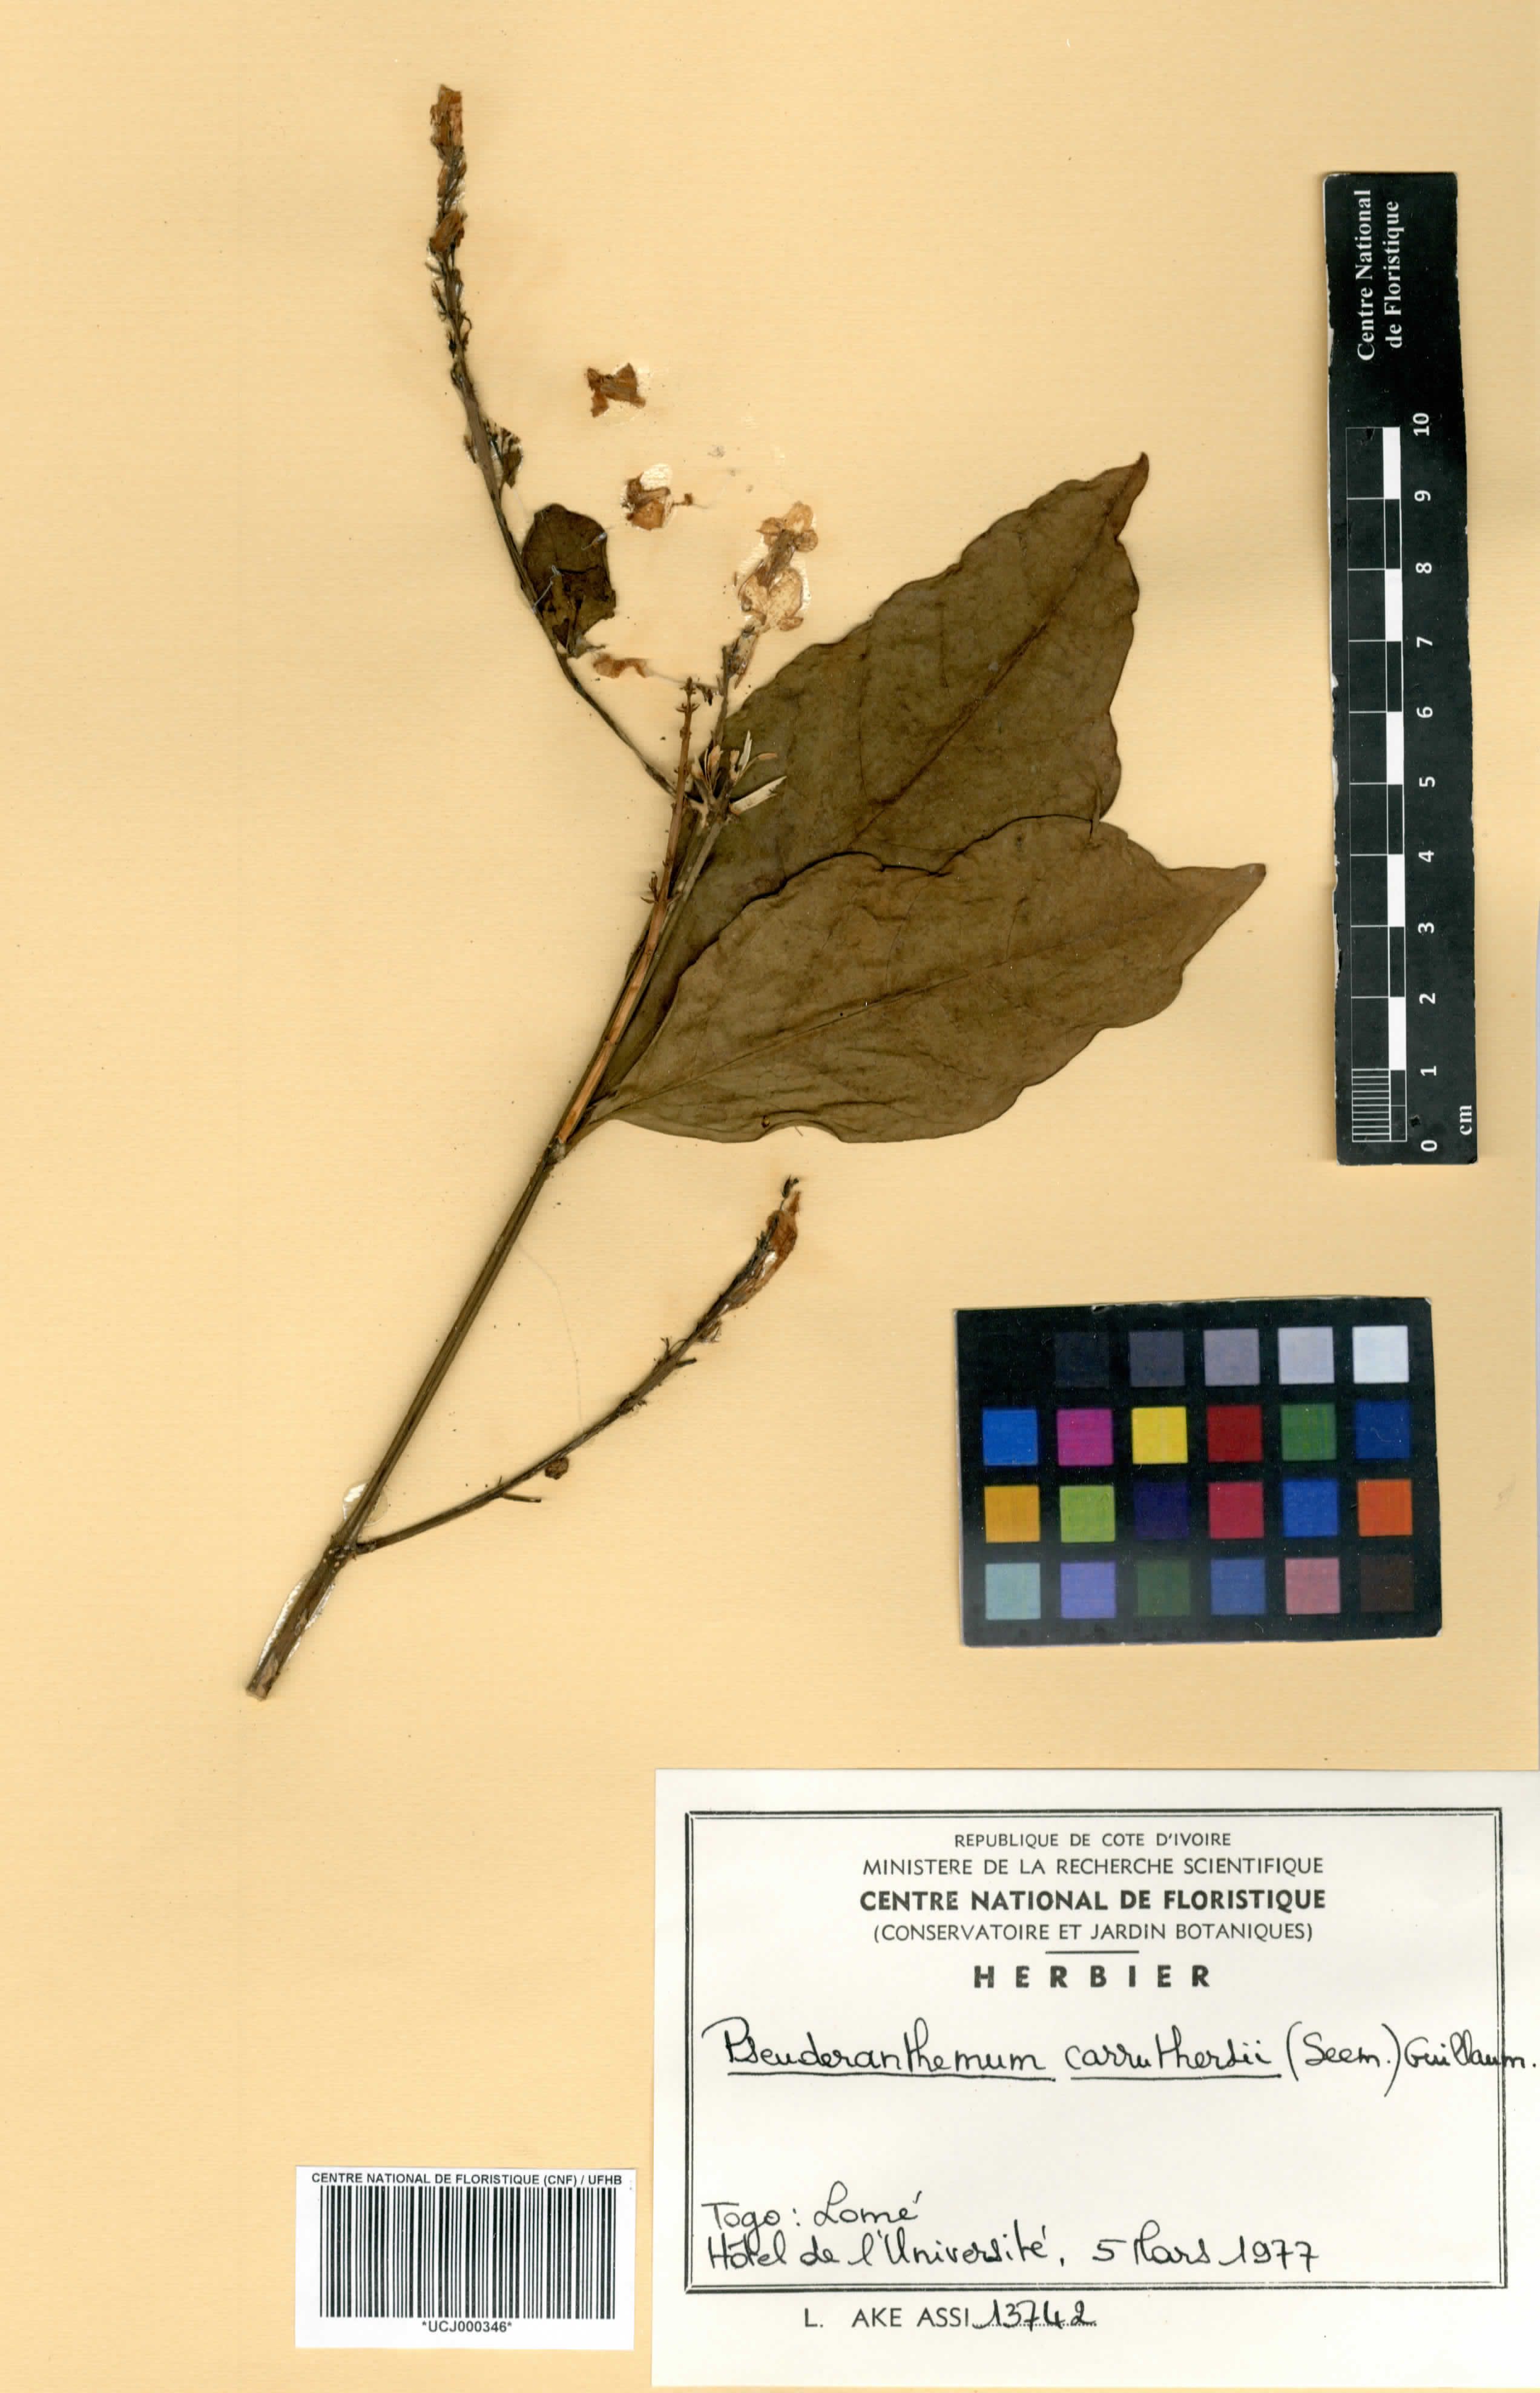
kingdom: Plantae
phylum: Tracheophyta
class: Magnoliopsida
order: Lamiales
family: Acanthaceae
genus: Pseuderanthemum
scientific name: Pseuderanthemum maculatum
